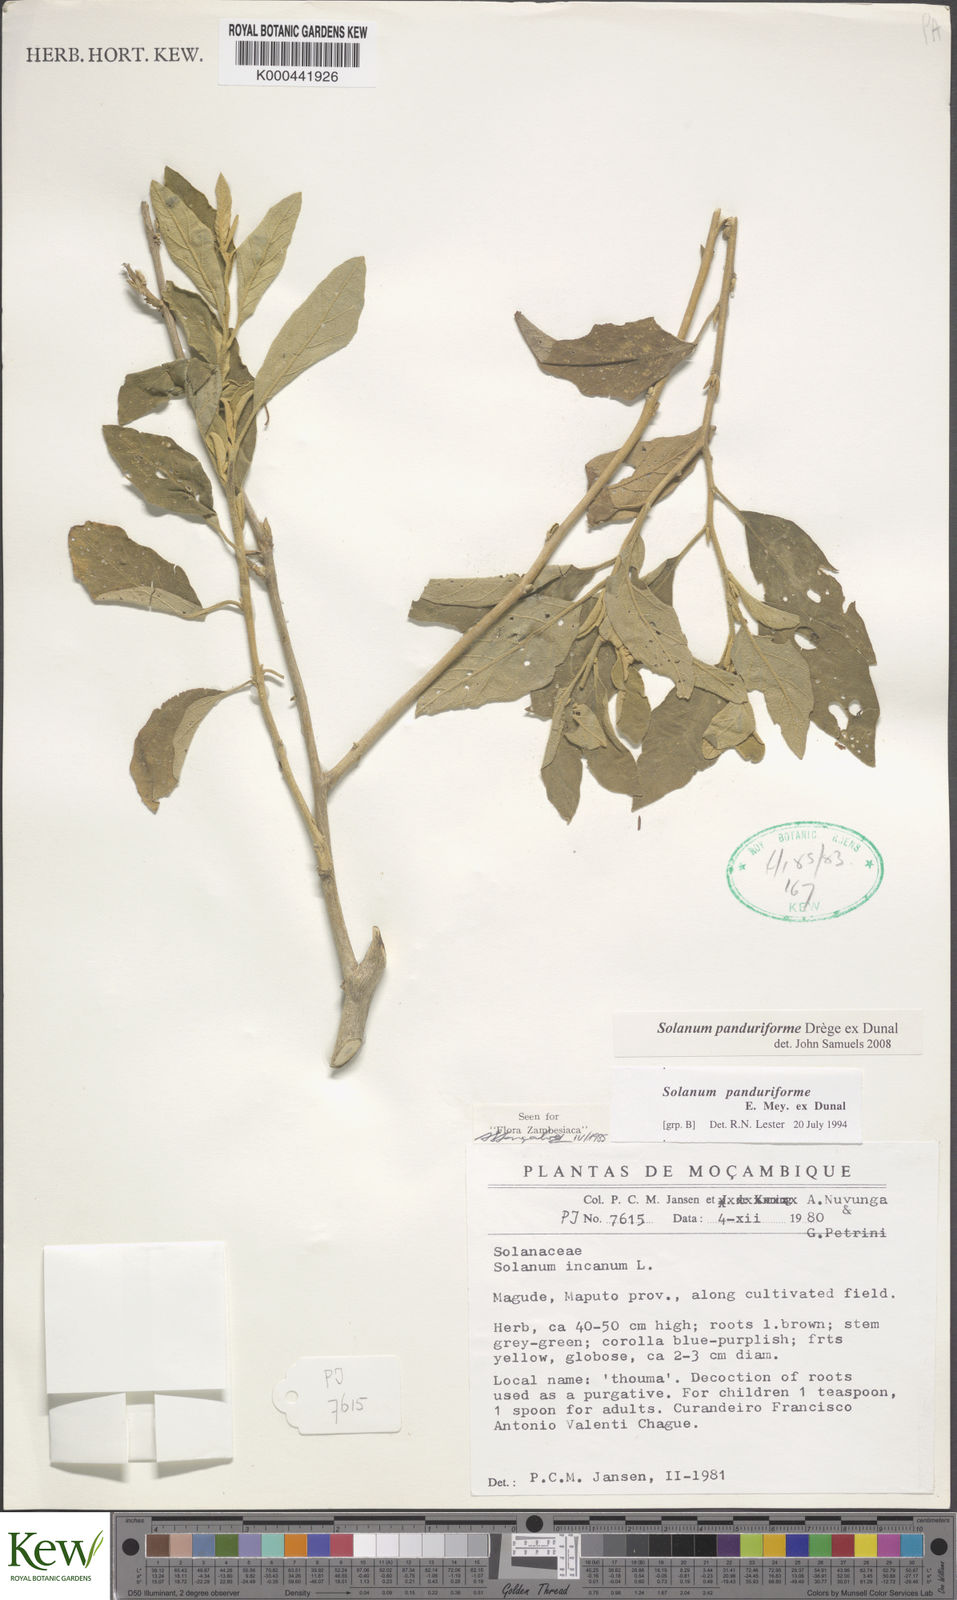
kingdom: Plantae
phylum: Tracheophyta
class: Magnoliopsida
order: Solanales
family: Solanaceae
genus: Solanum
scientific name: Solanum campylacanthum
